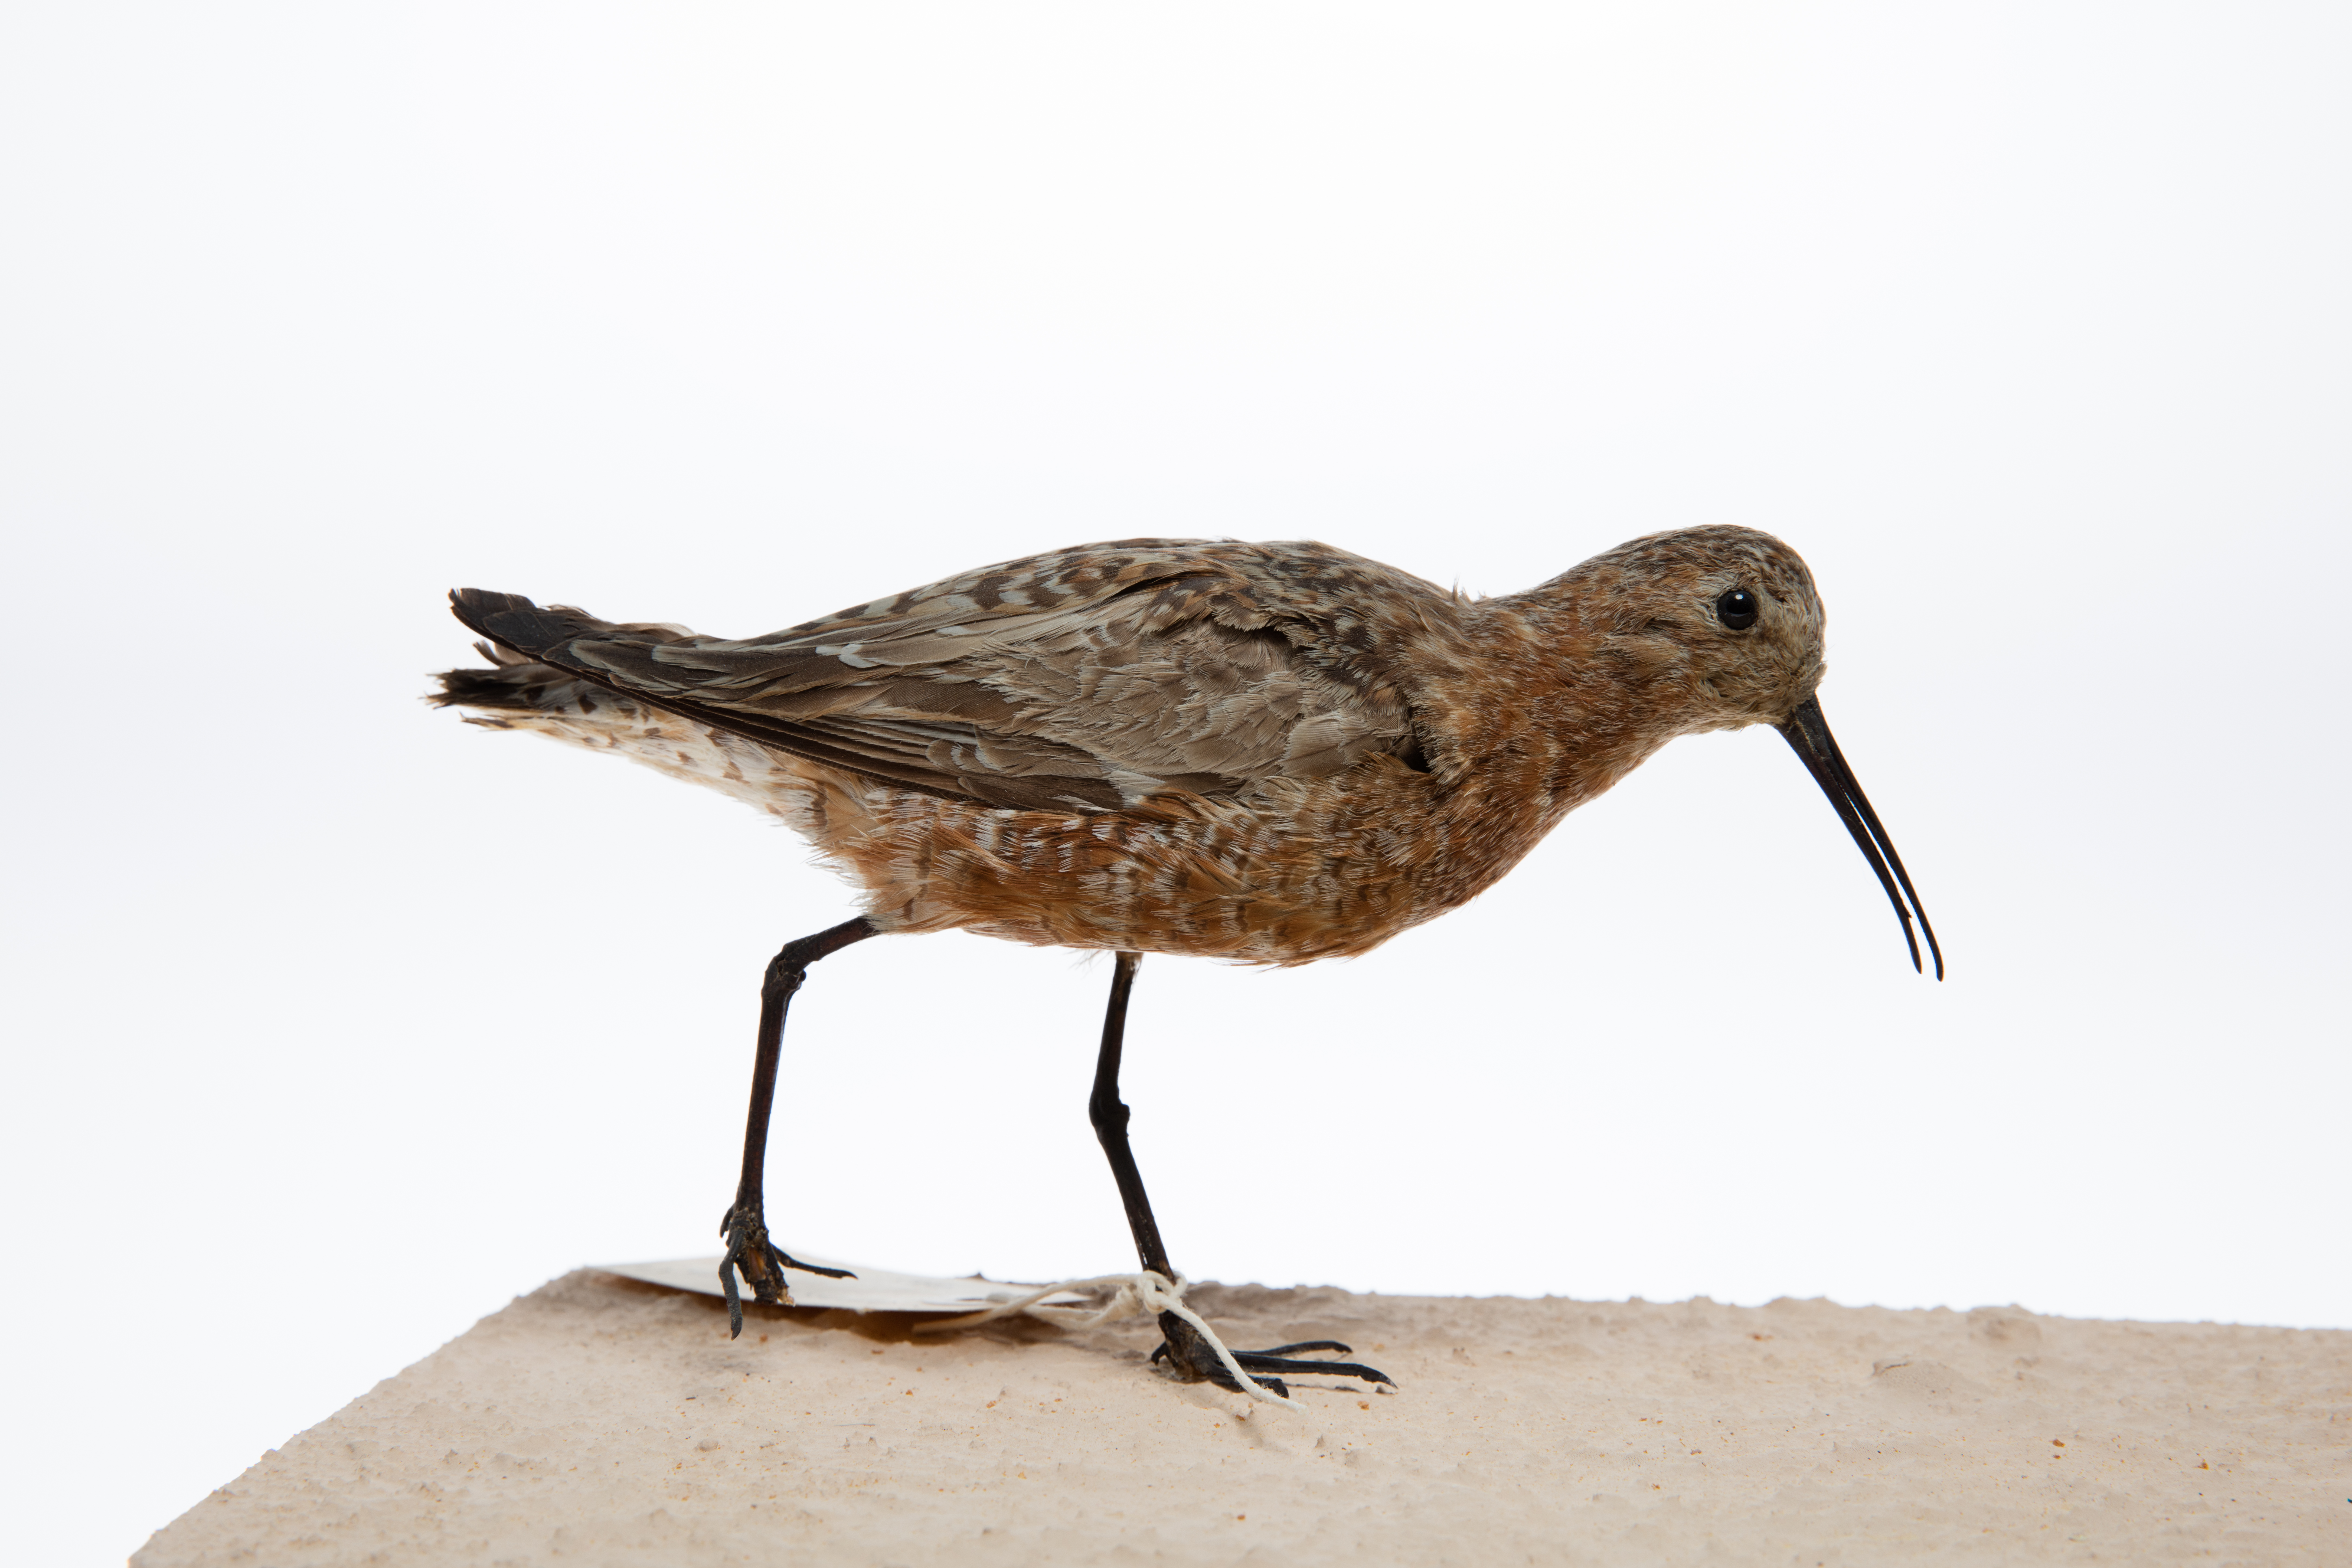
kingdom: Animalia
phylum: Chordata
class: Aves
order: Charadriiformes
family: Scolopacidae
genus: Calidris
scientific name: Calidris ferruginea
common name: Curlew sandpiper
